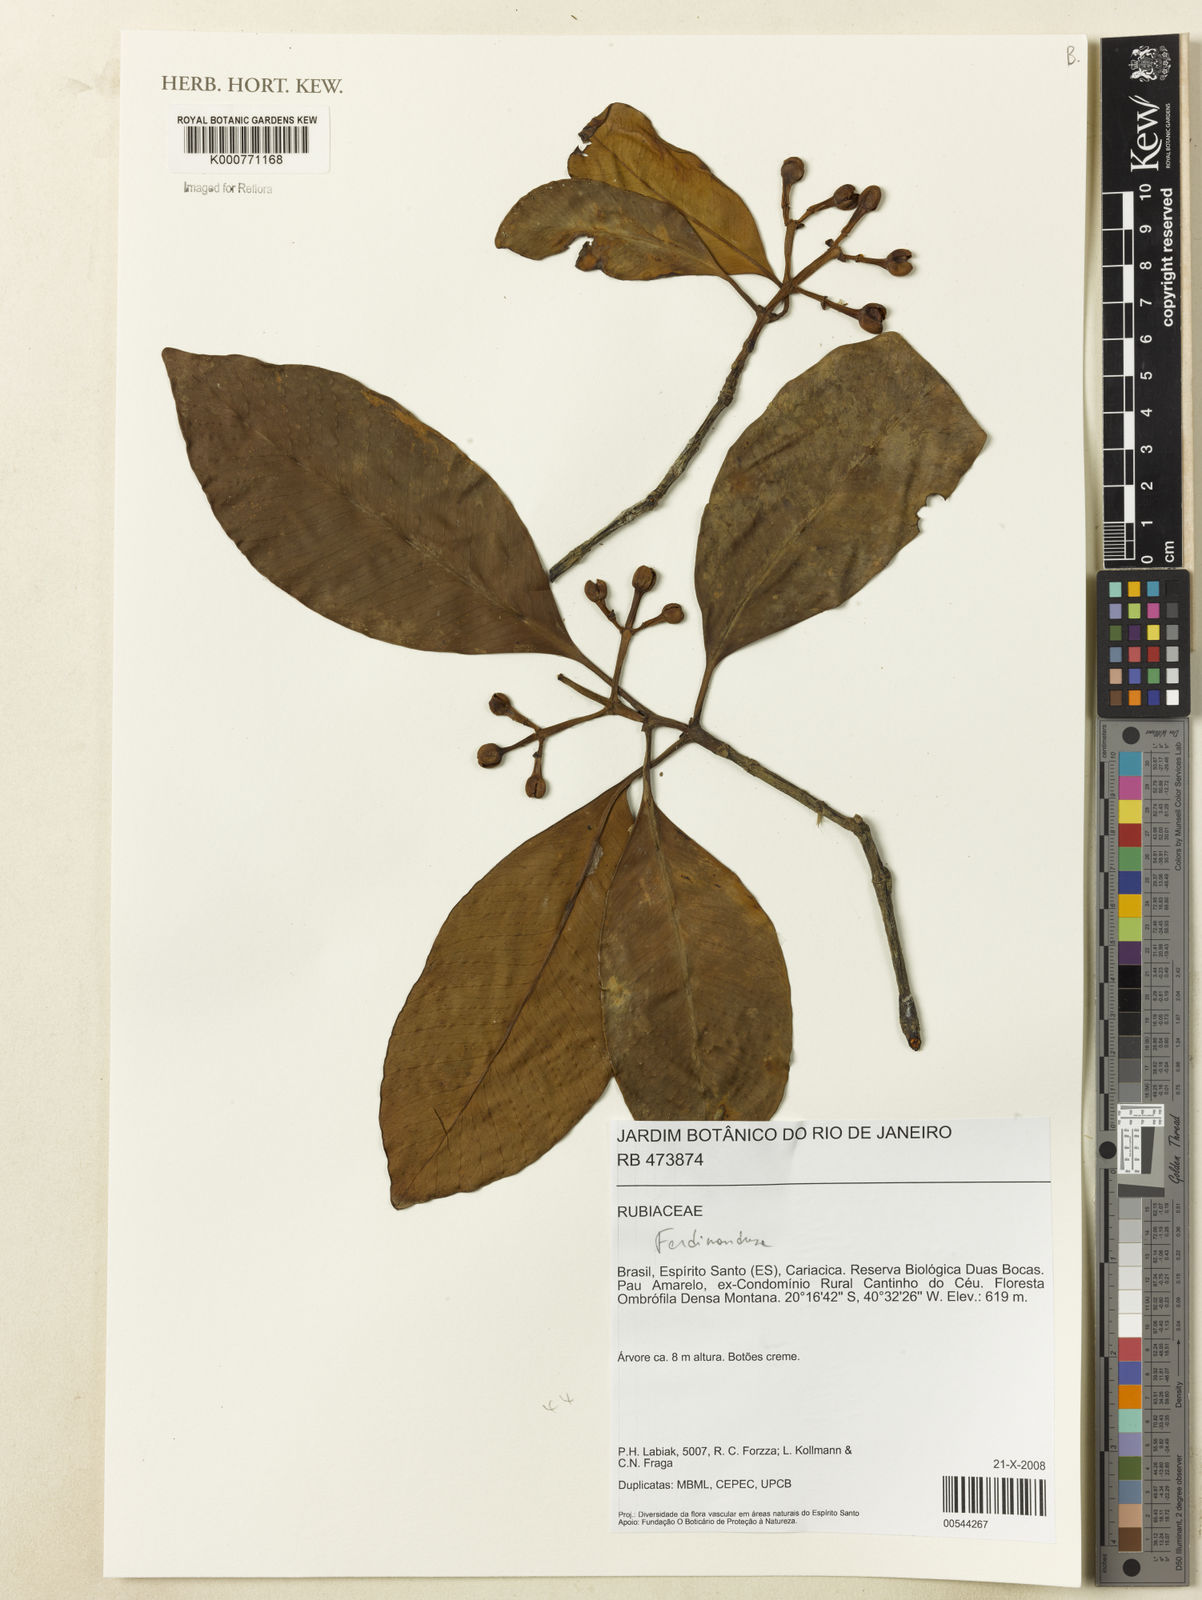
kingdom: Plantae
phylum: Tracheophyta
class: Magnoliopsida
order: Gentianales
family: Rubiaceae
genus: Ferdinandusa
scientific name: Ferdinandusa
